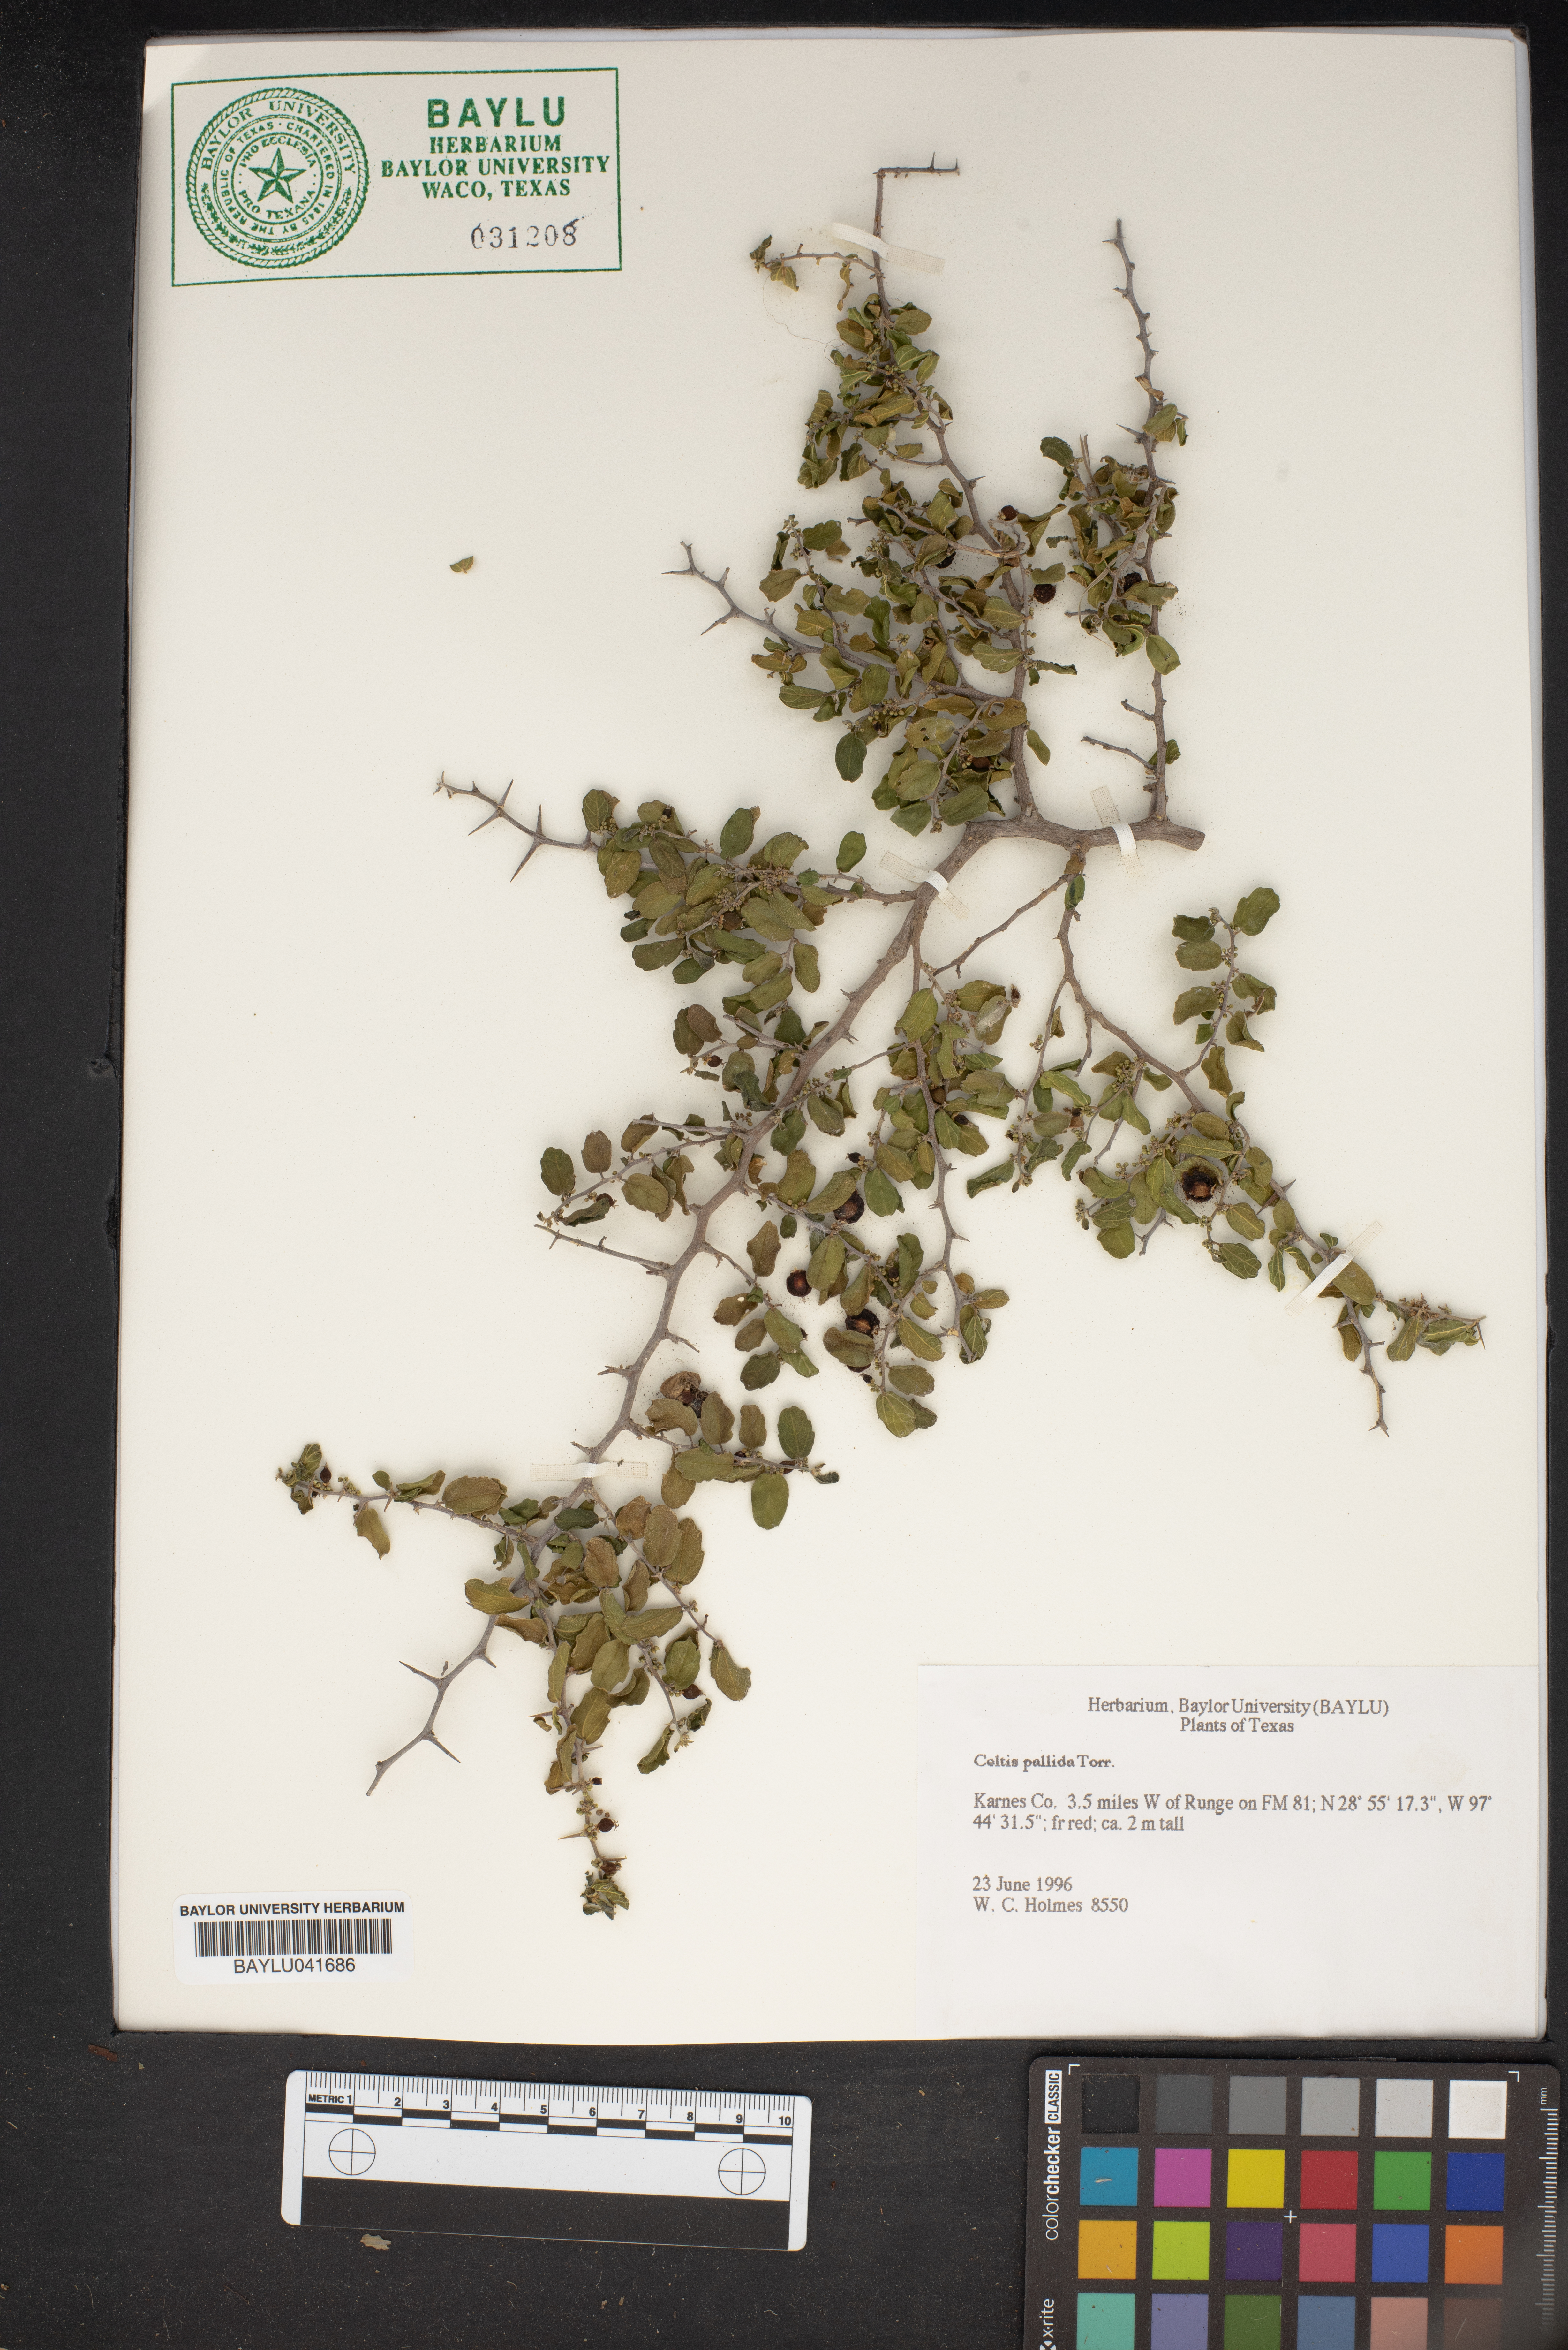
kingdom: Plantae
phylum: Tracheophyta
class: Magnoliopsida
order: Rosales
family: Cannabaceae
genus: Celtis
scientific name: Celtis pallida
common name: Desert hackberry
